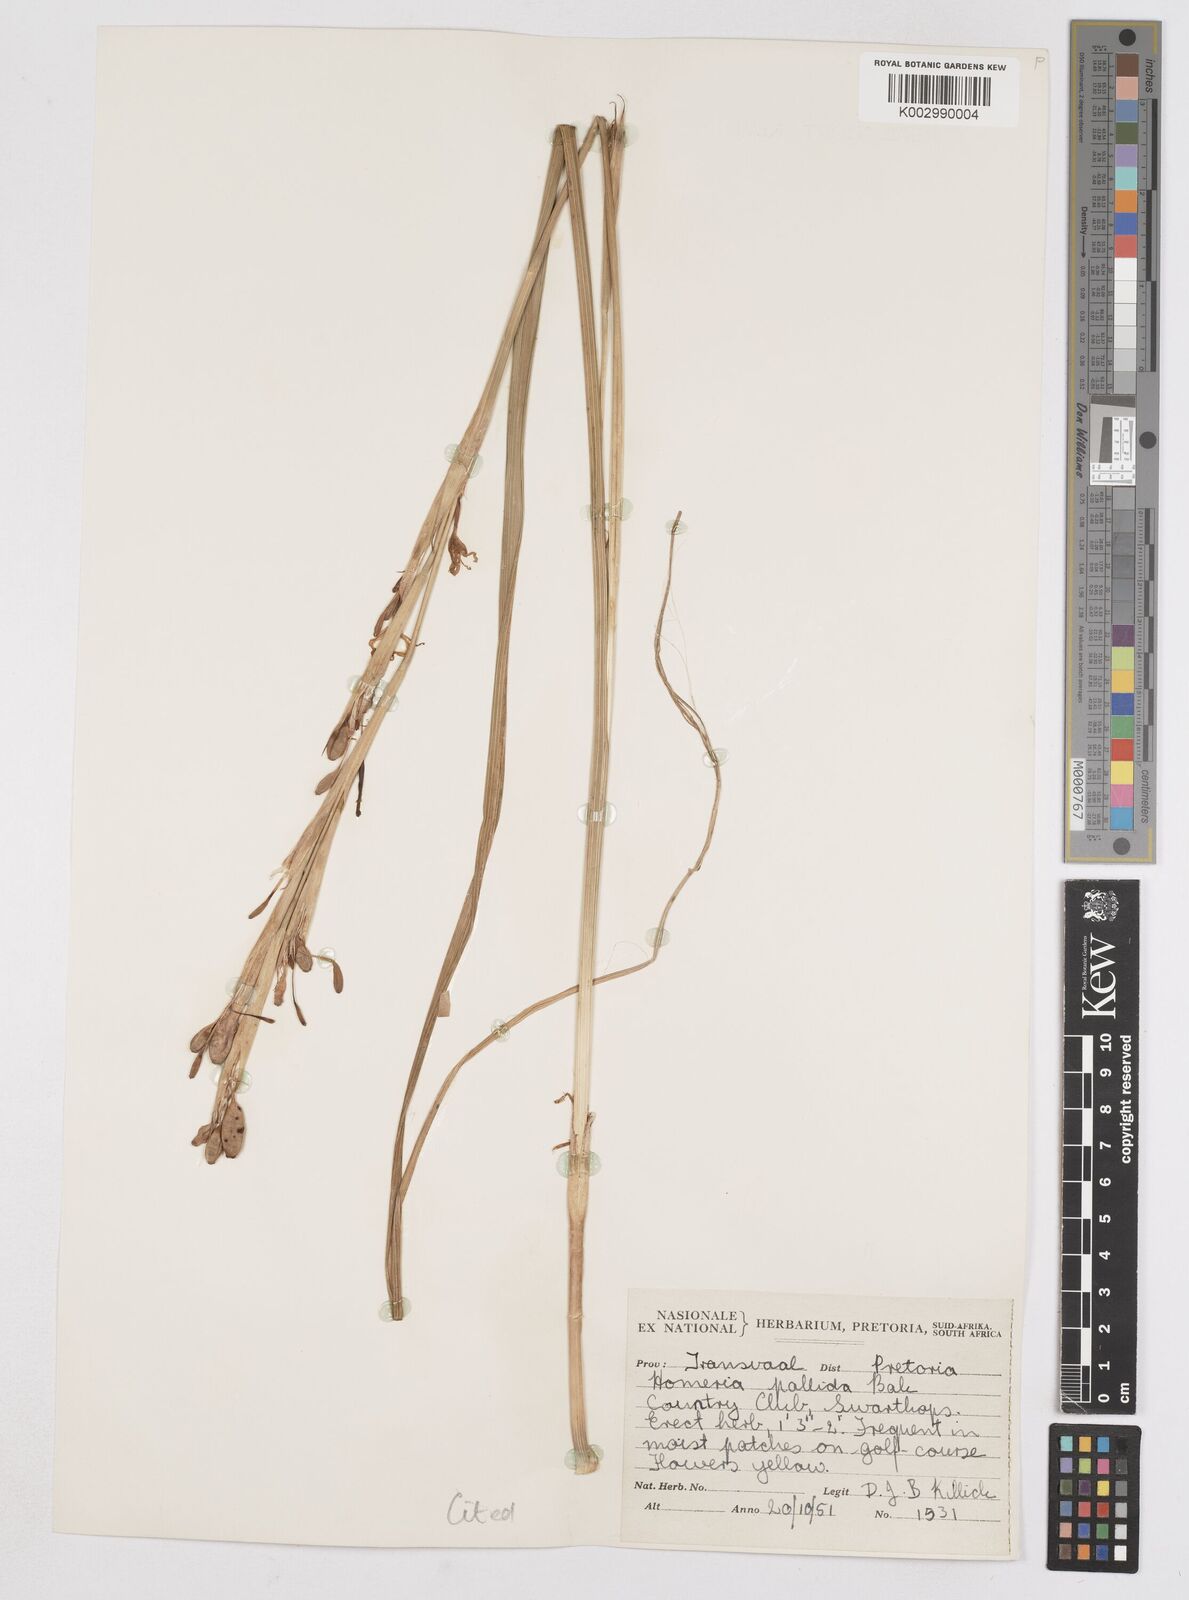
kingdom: Plantae
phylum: Tracheophyta
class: Liliopsida
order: Asparagales
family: Iridaceae
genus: Moraea
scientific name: Moraea pallida
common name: Yellow tulp
